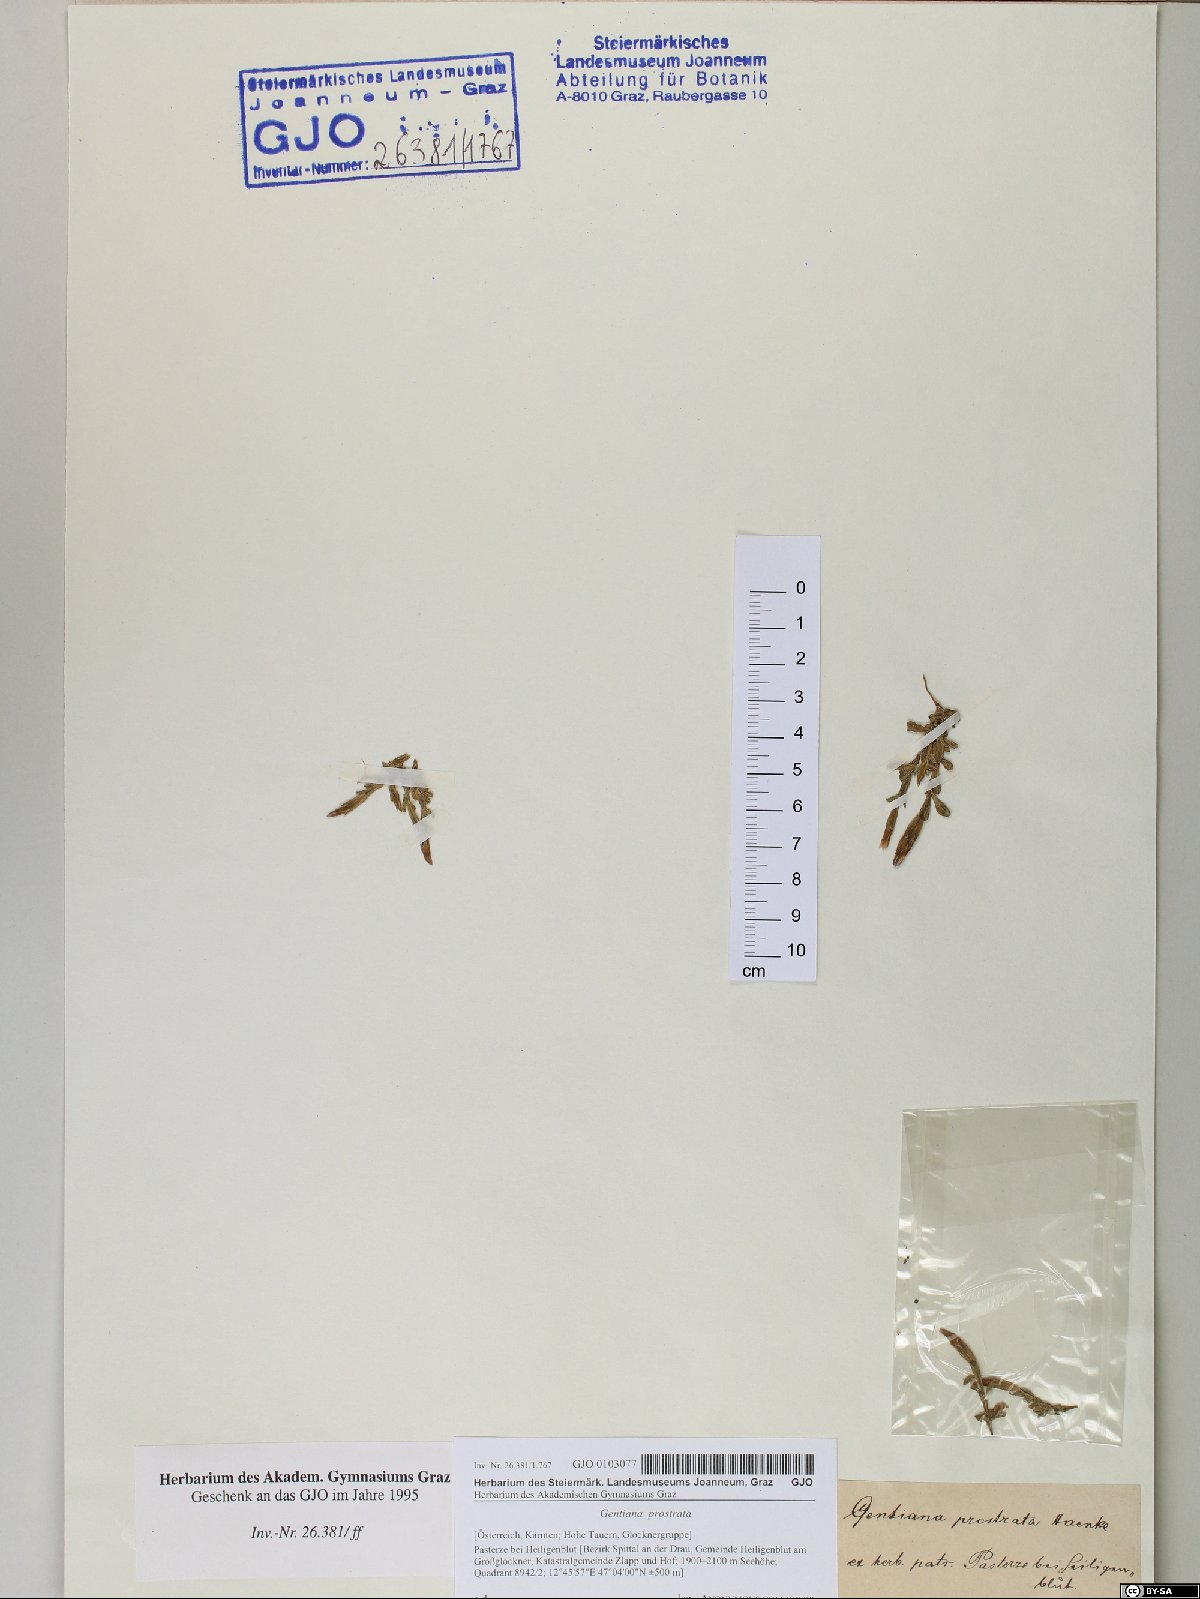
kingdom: Plantae
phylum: Tracheophyta
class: Magnoliopsida
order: Gentianales
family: Gentianaceae
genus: Gentiana
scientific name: Gentiana prostrata
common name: Moss gentian
